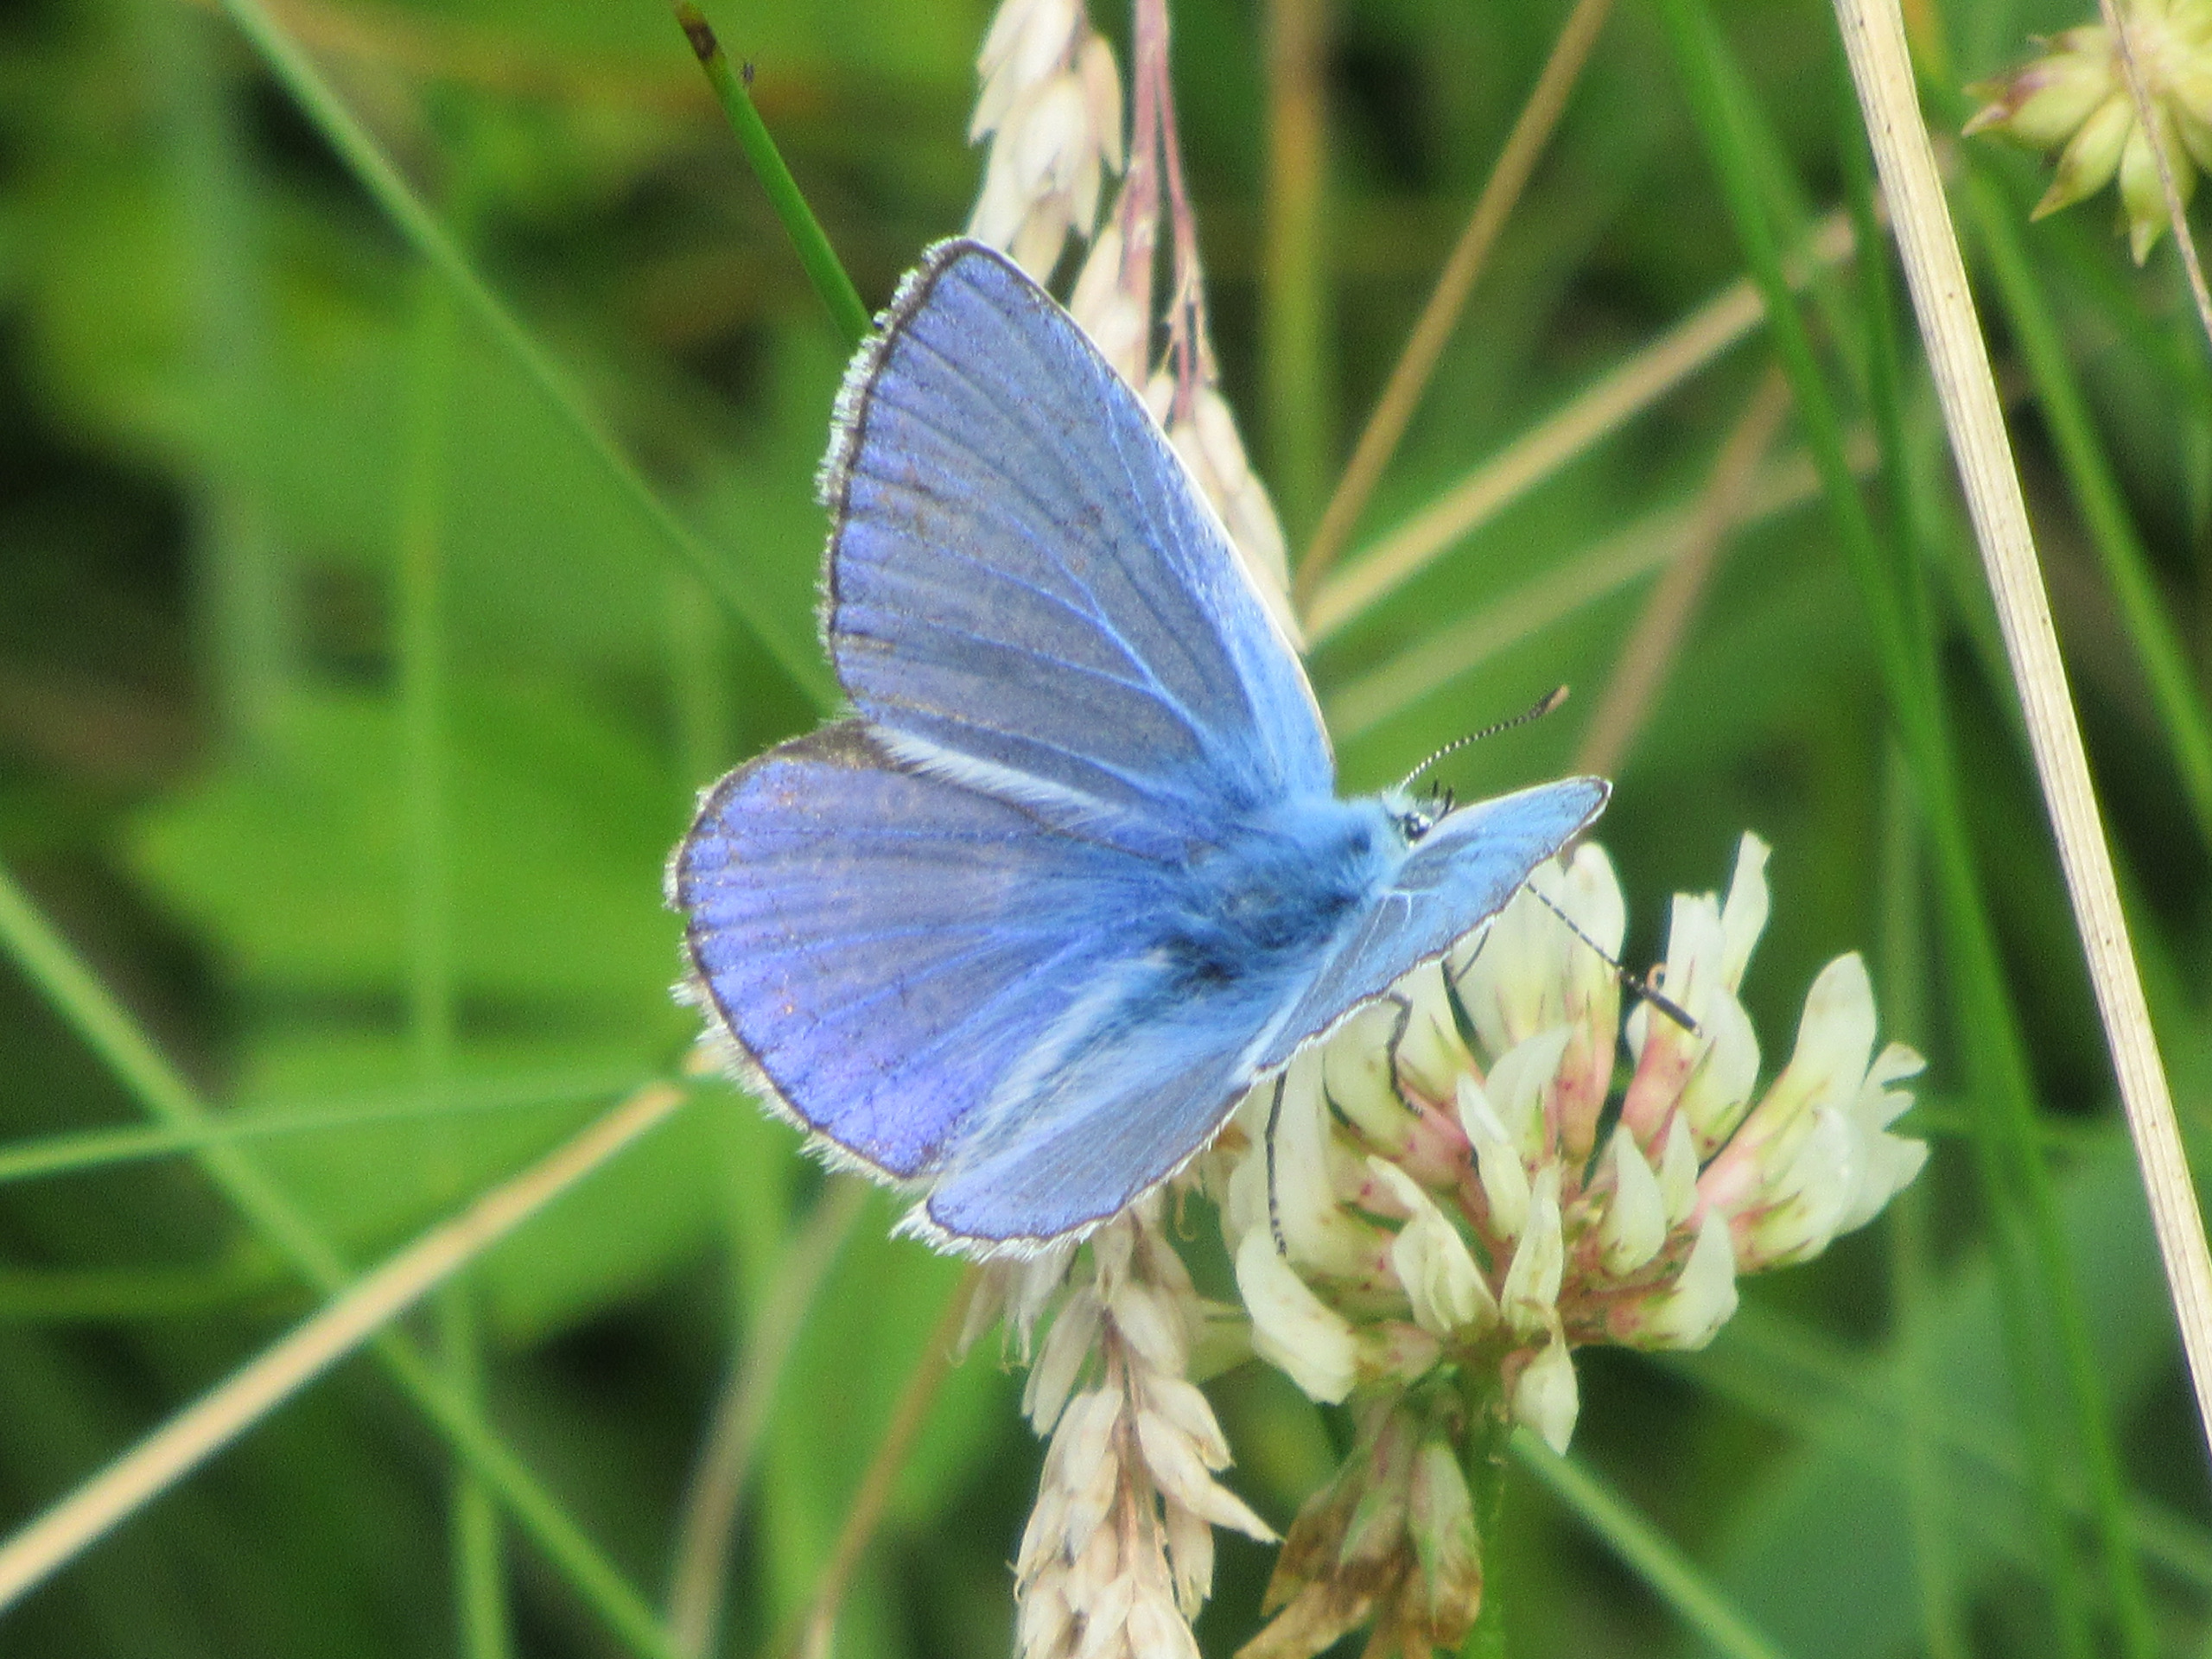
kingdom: Animalia
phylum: Arthropoda
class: Insecta
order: Lepidoptera
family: Lycaenidae
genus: Polyommatus
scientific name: Polyommatus icarus
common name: Almindelig blåfugl
